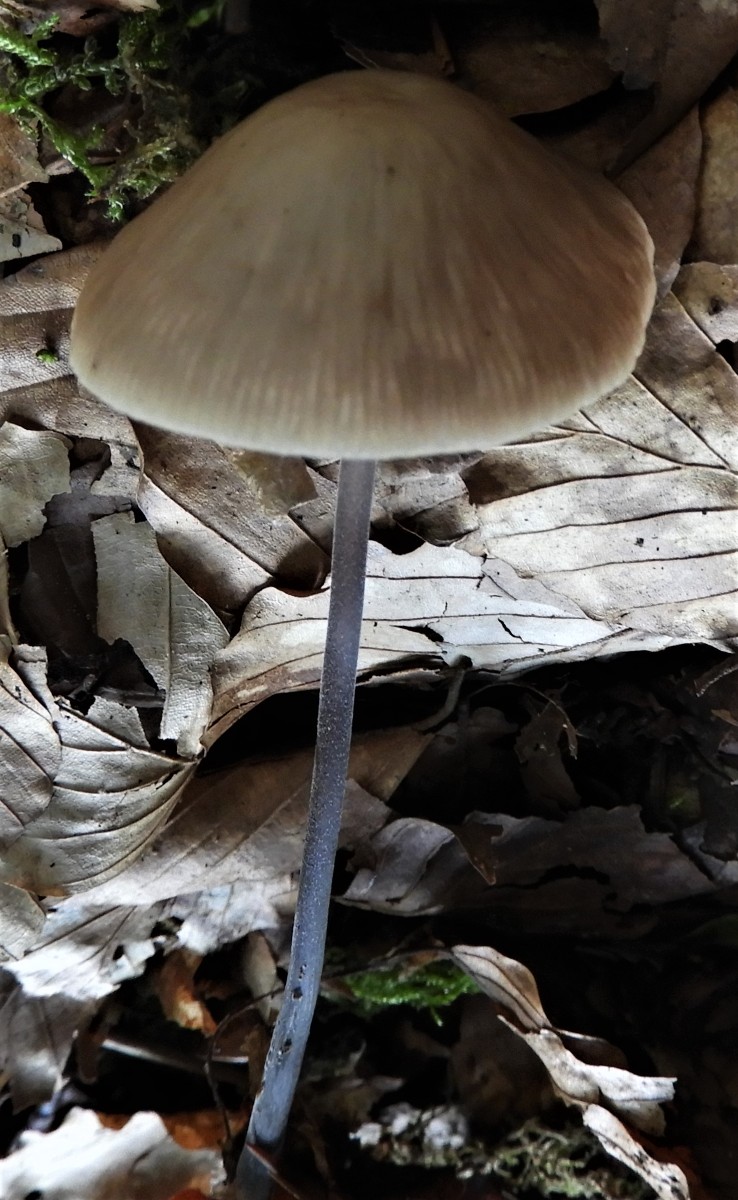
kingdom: Fungi
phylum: Basidiomycota
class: Agaricomycetes
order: Agaricales
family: Omphalotaceae
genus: Mycetinis
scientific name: Mycetinis alliaceus
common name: stor løghat
